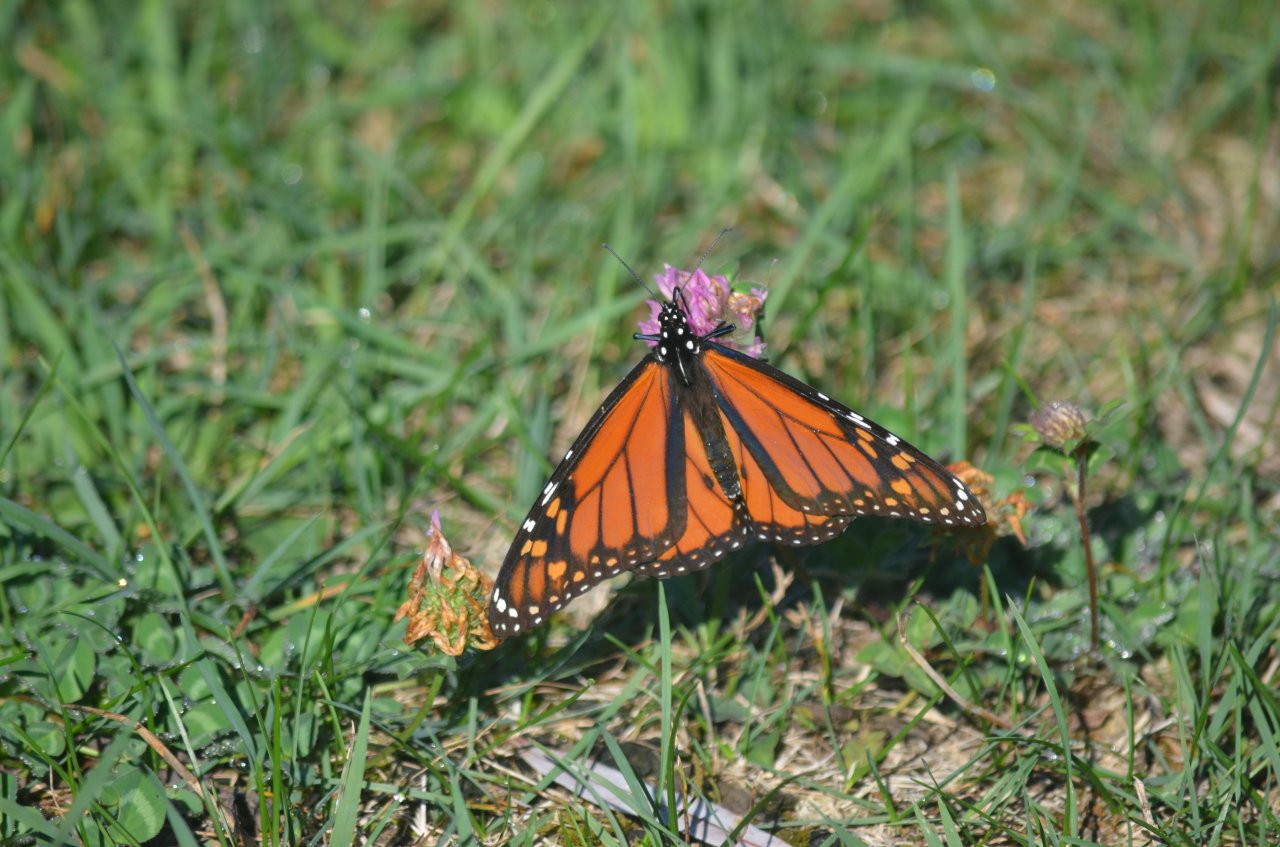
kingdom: Animalia
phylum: Arthropoda
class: Insecta
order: Lepidoptera
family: Nymphalidae
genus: Danaus
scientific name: Danaus plexippus
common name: Monarch
